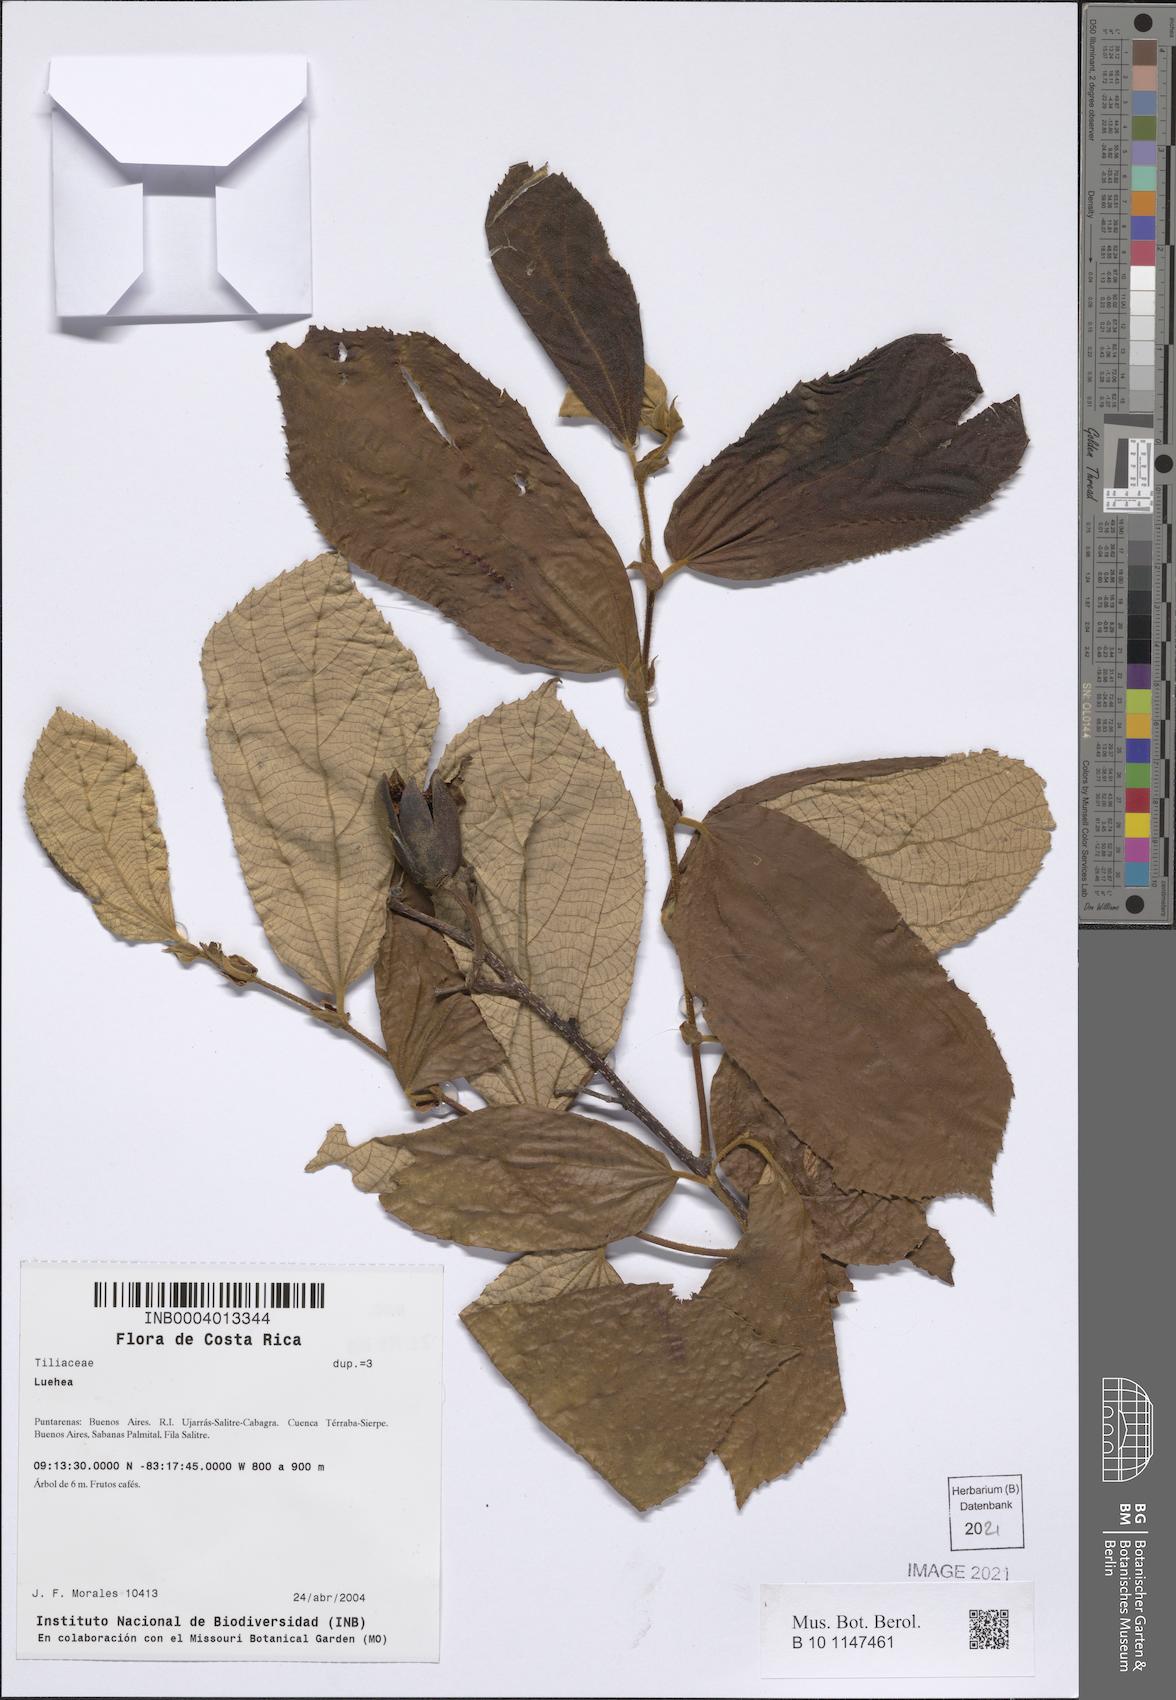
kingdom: Plantae
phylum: Tracheophyta
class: Magnoliopsida
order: Malvales
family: Malvaceae
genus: Luehea
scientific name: Luehea
